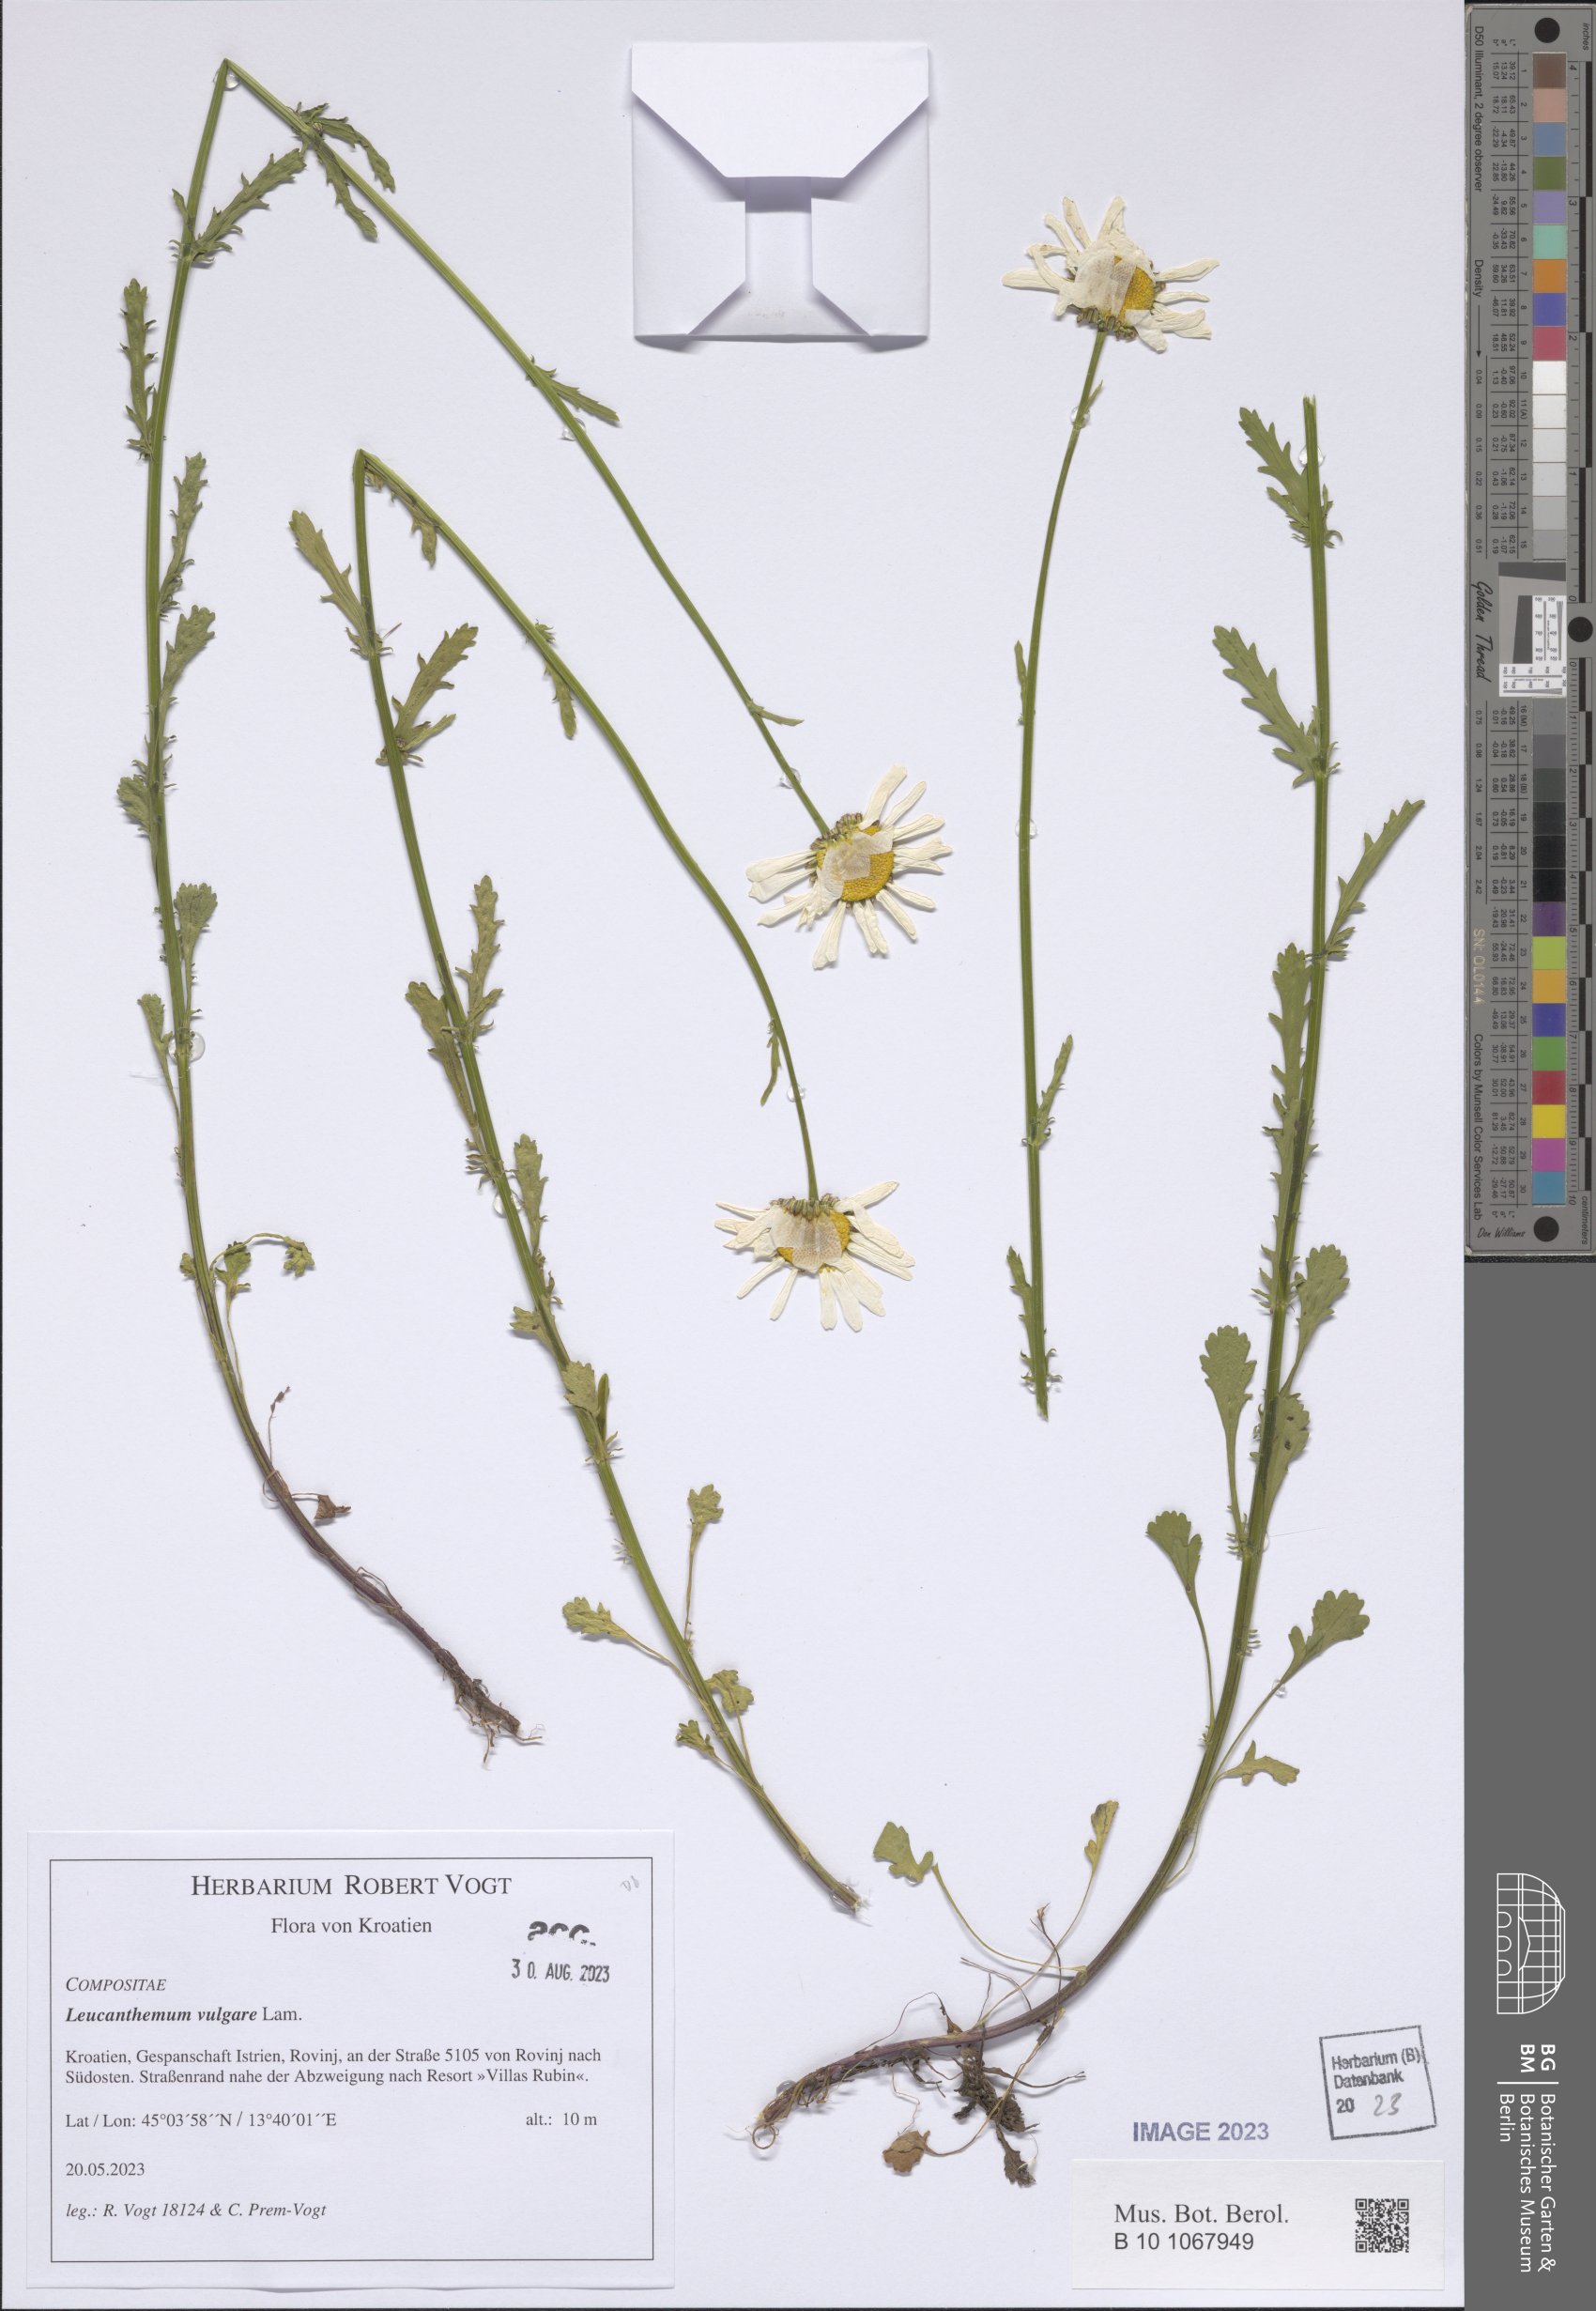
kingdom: Plantae
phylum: Tracheophyta
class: Magnoliopsida
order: Asterales
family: Asteraceae
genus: Leucanthemum
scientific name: Leucanthemum vulgare
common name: Oxeye daisy
